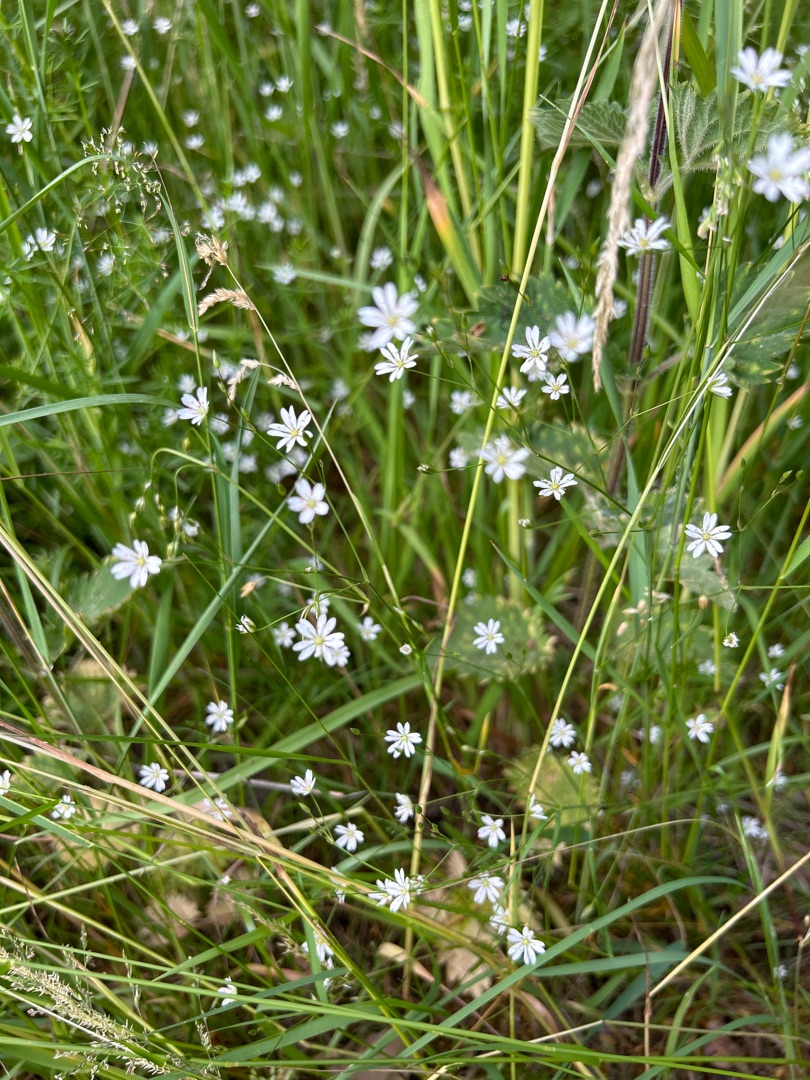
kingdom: Plantae
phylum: Tracheophyta
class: Magnoliopsida
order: Caryophyllales
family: Caryophyllaceae
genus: Stellaria
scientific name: Stellaria graminea
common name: Græsbladet fladstjerne
